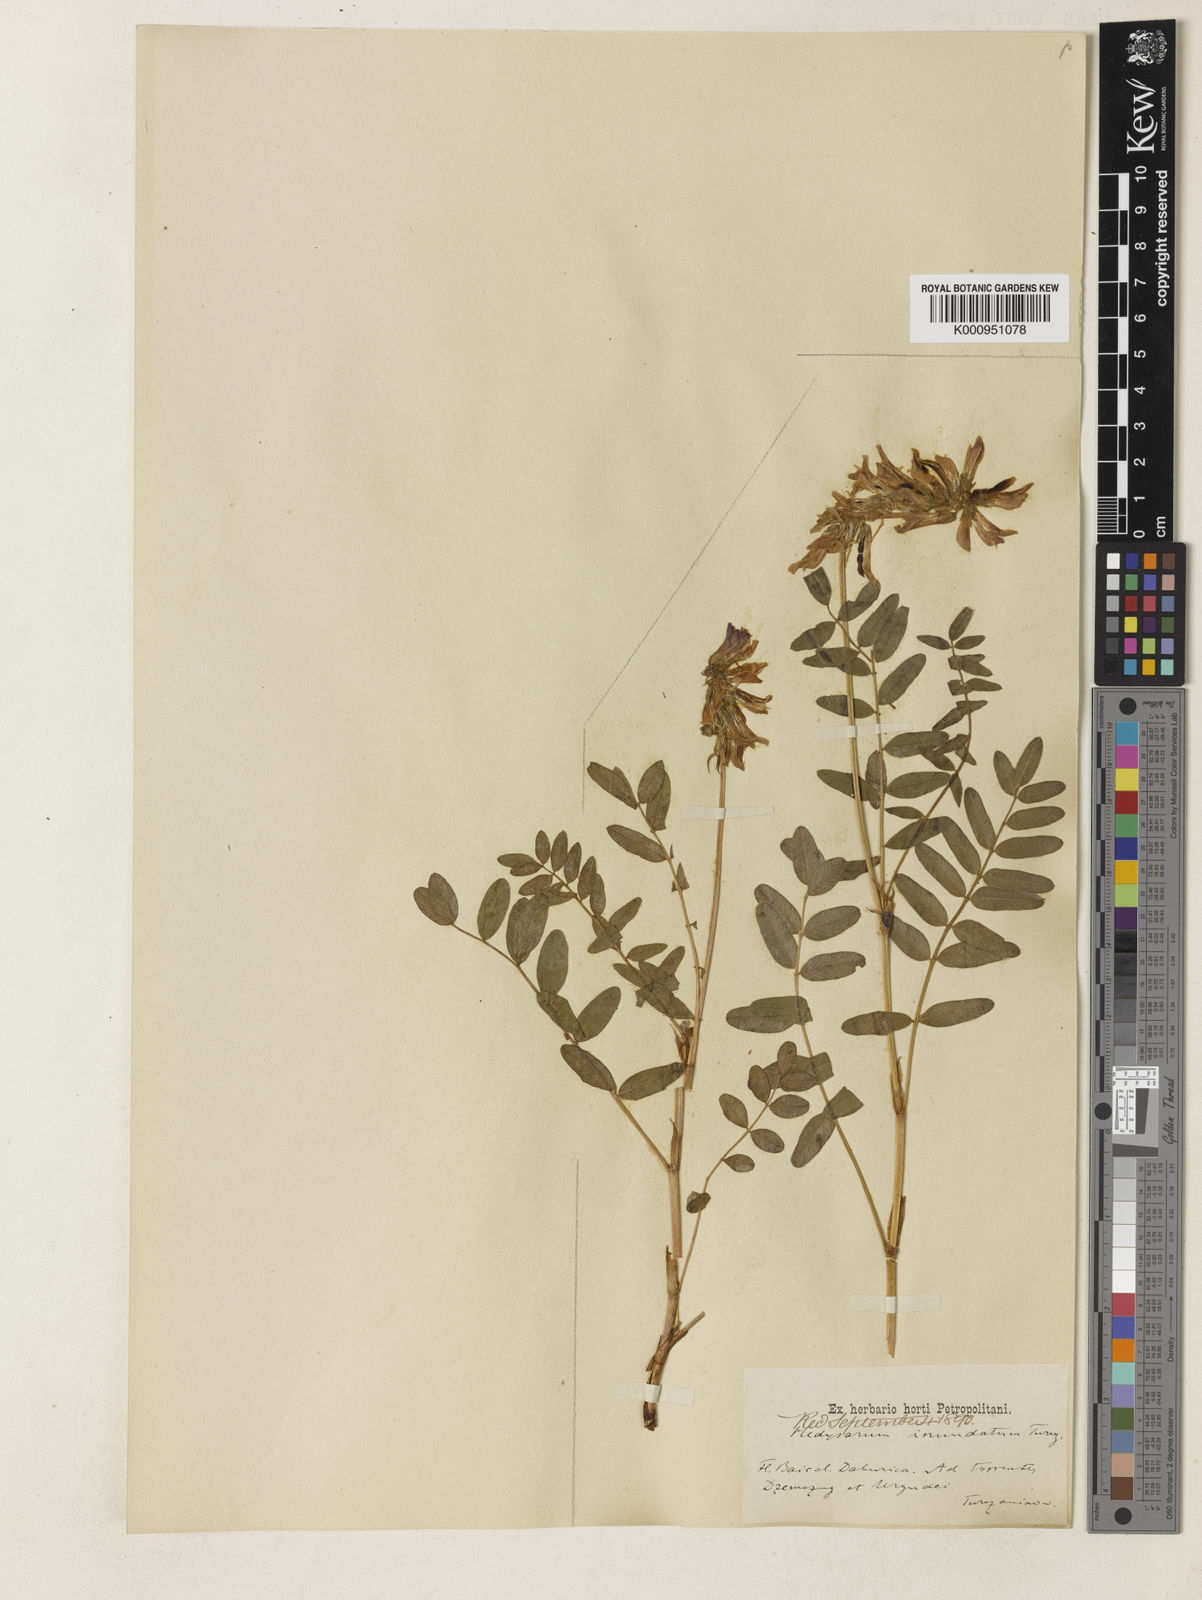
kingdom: Plantae
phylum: Tracheophyta
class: Magnoliopsida
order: Fabales
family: Fabaceae
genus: Hedysarum
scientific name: Hedysarum inundatum
